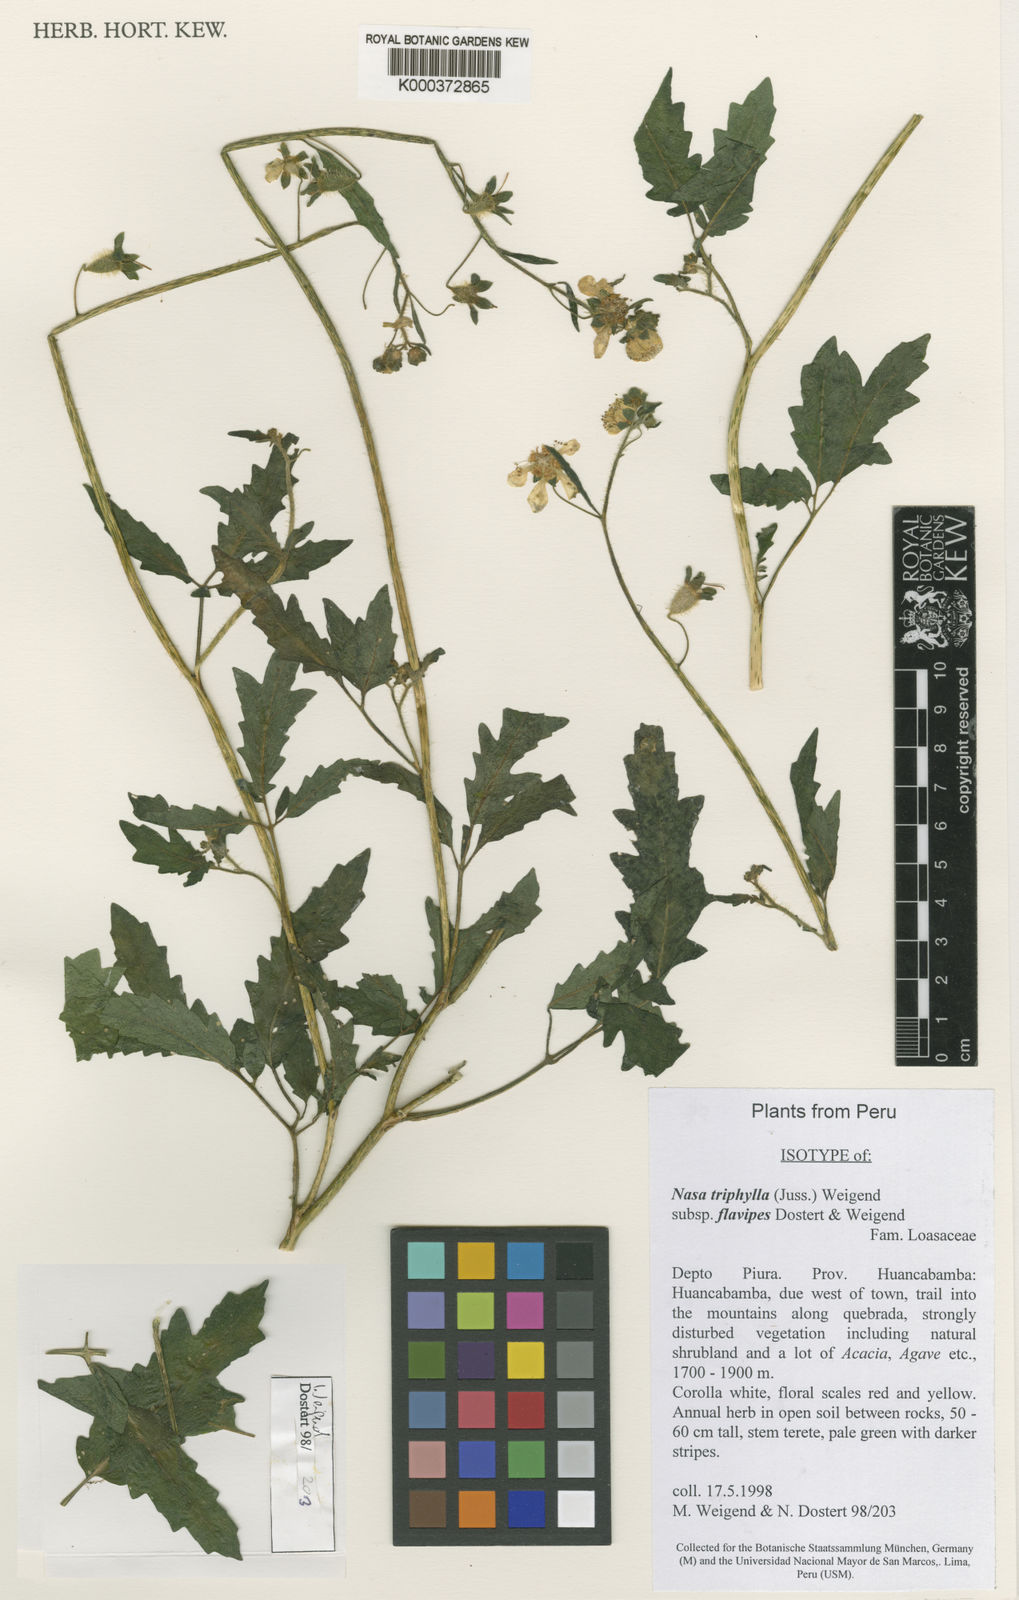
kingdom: Plantae
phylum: Tracheophyta
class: Magnoliopsida
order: Cornales
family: Loasaceae
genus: Nasa
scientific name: Nasa triphylla
